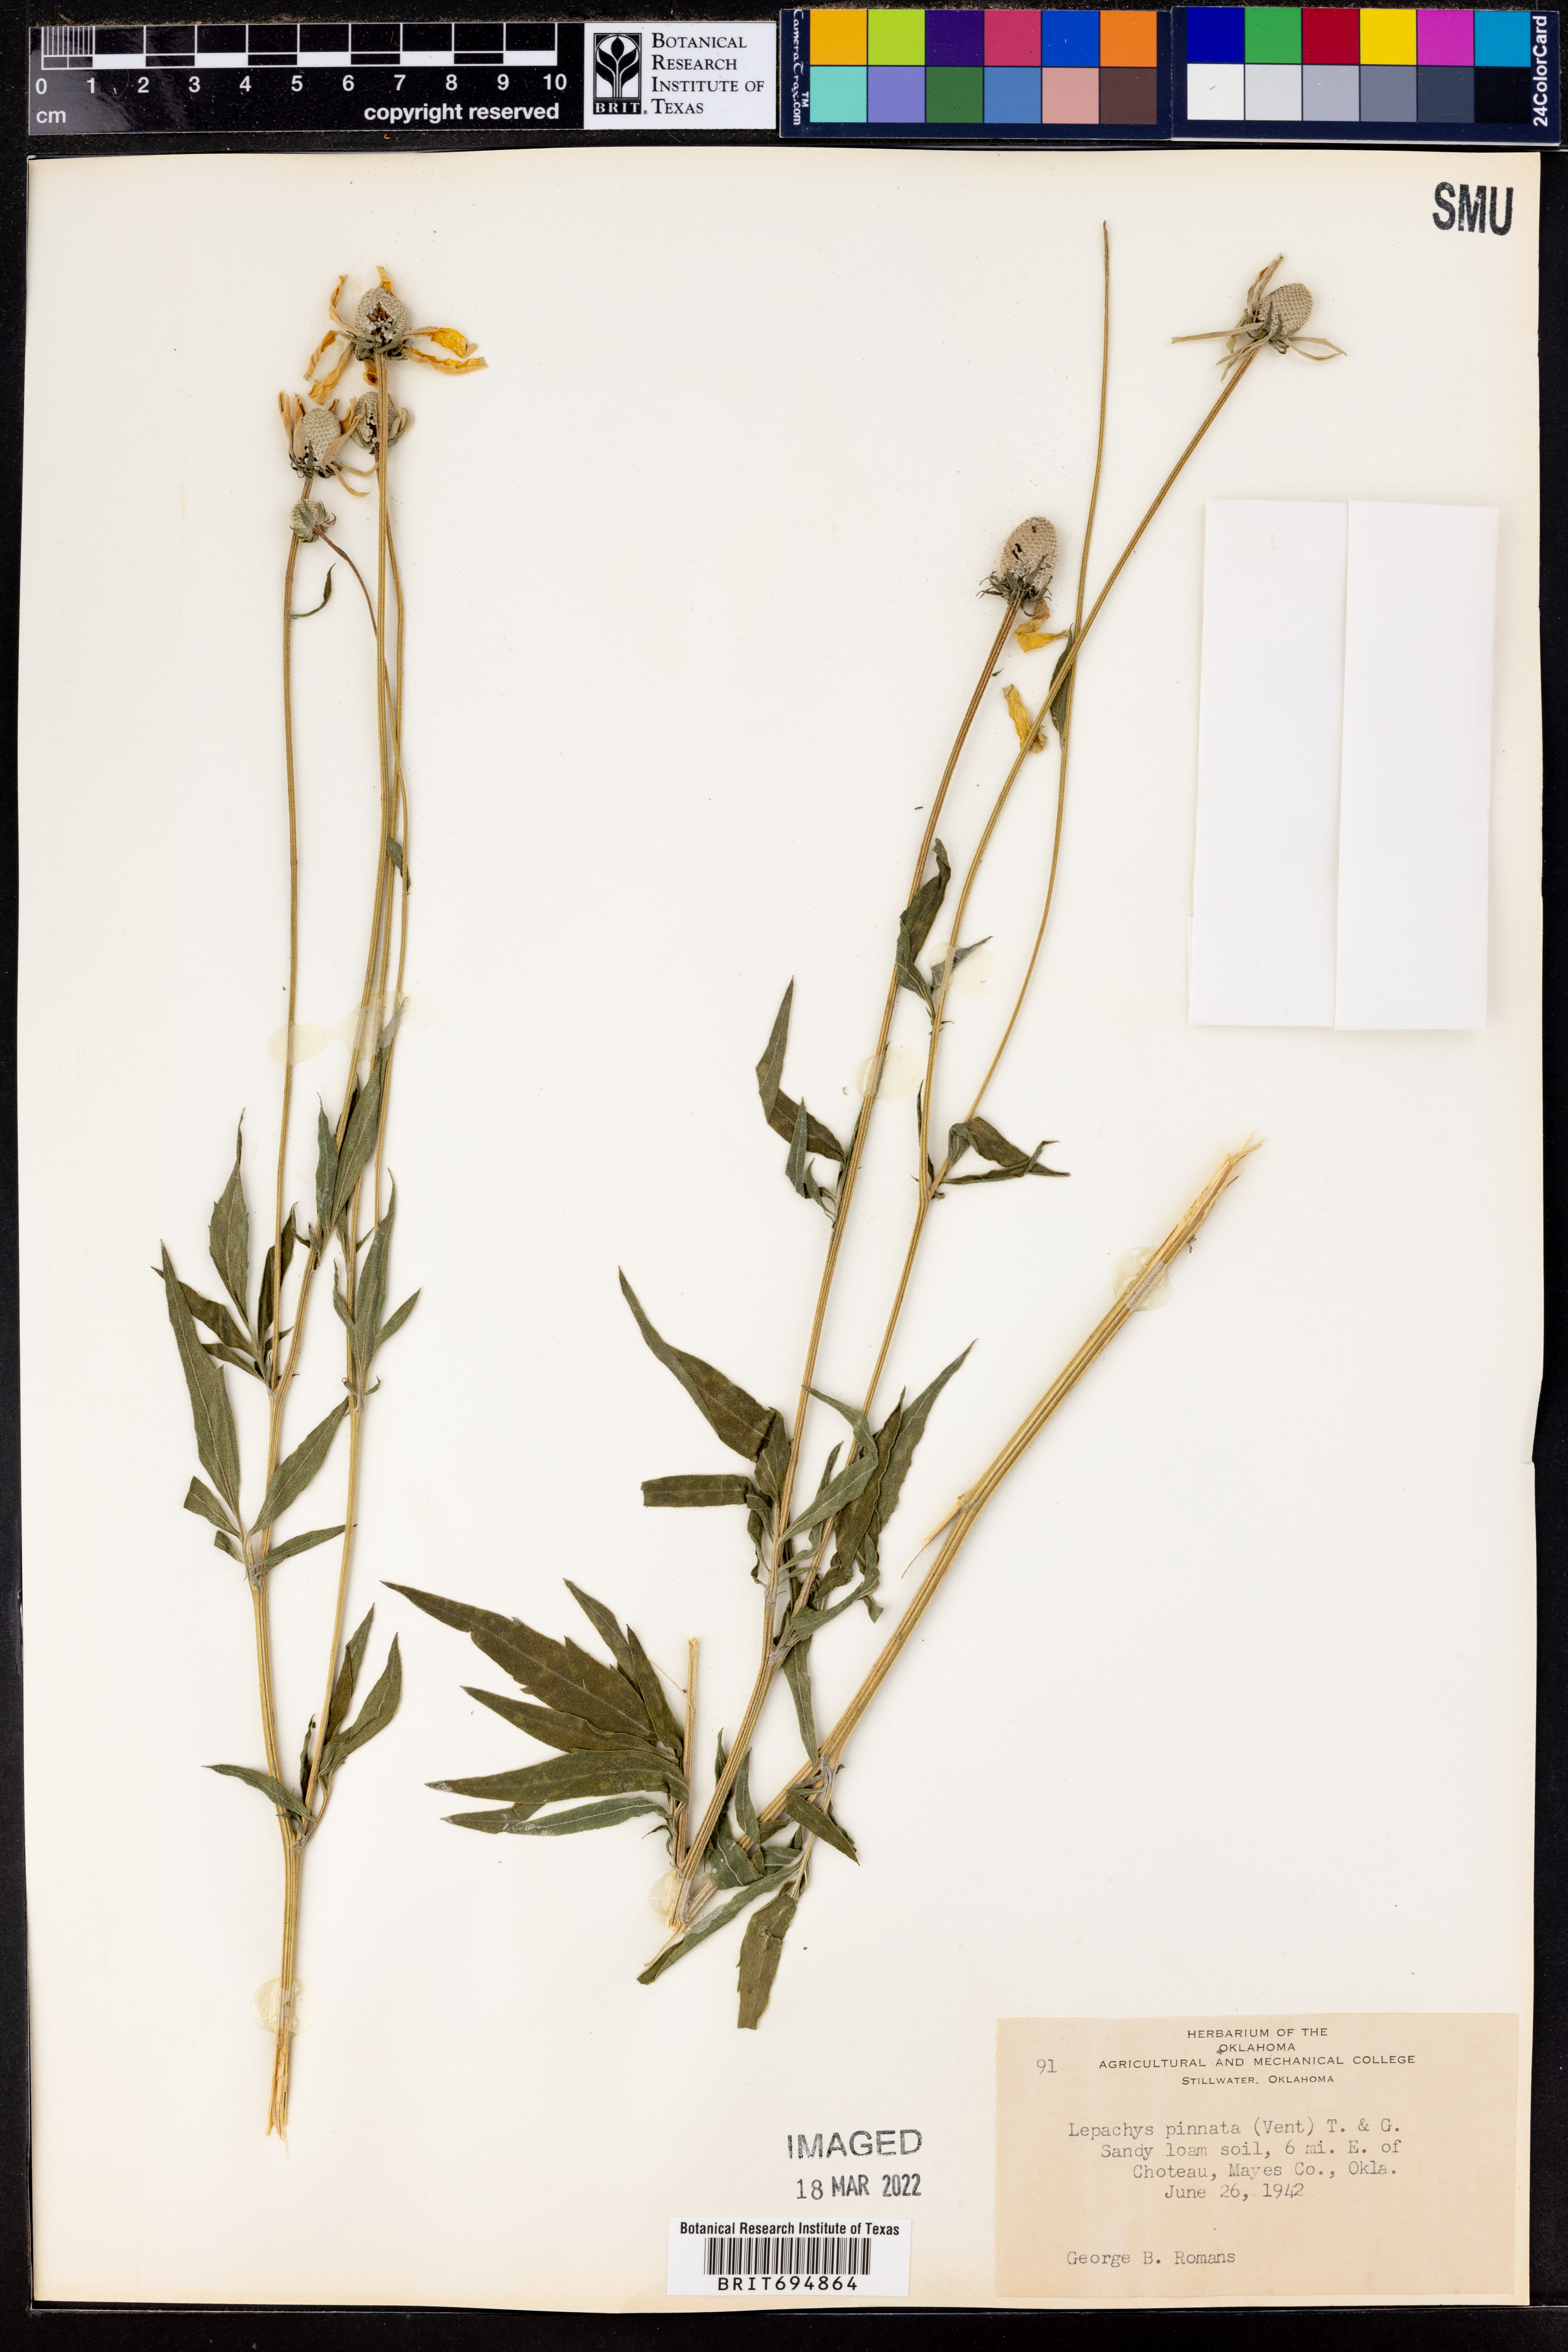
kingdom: Plantae
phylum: Tracheophyta
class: Magnoliopsida
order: Asterales
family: Asteraceae
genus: Ratibida
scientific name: Ratibida pinnata
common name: Drooping prairie-coneflower
